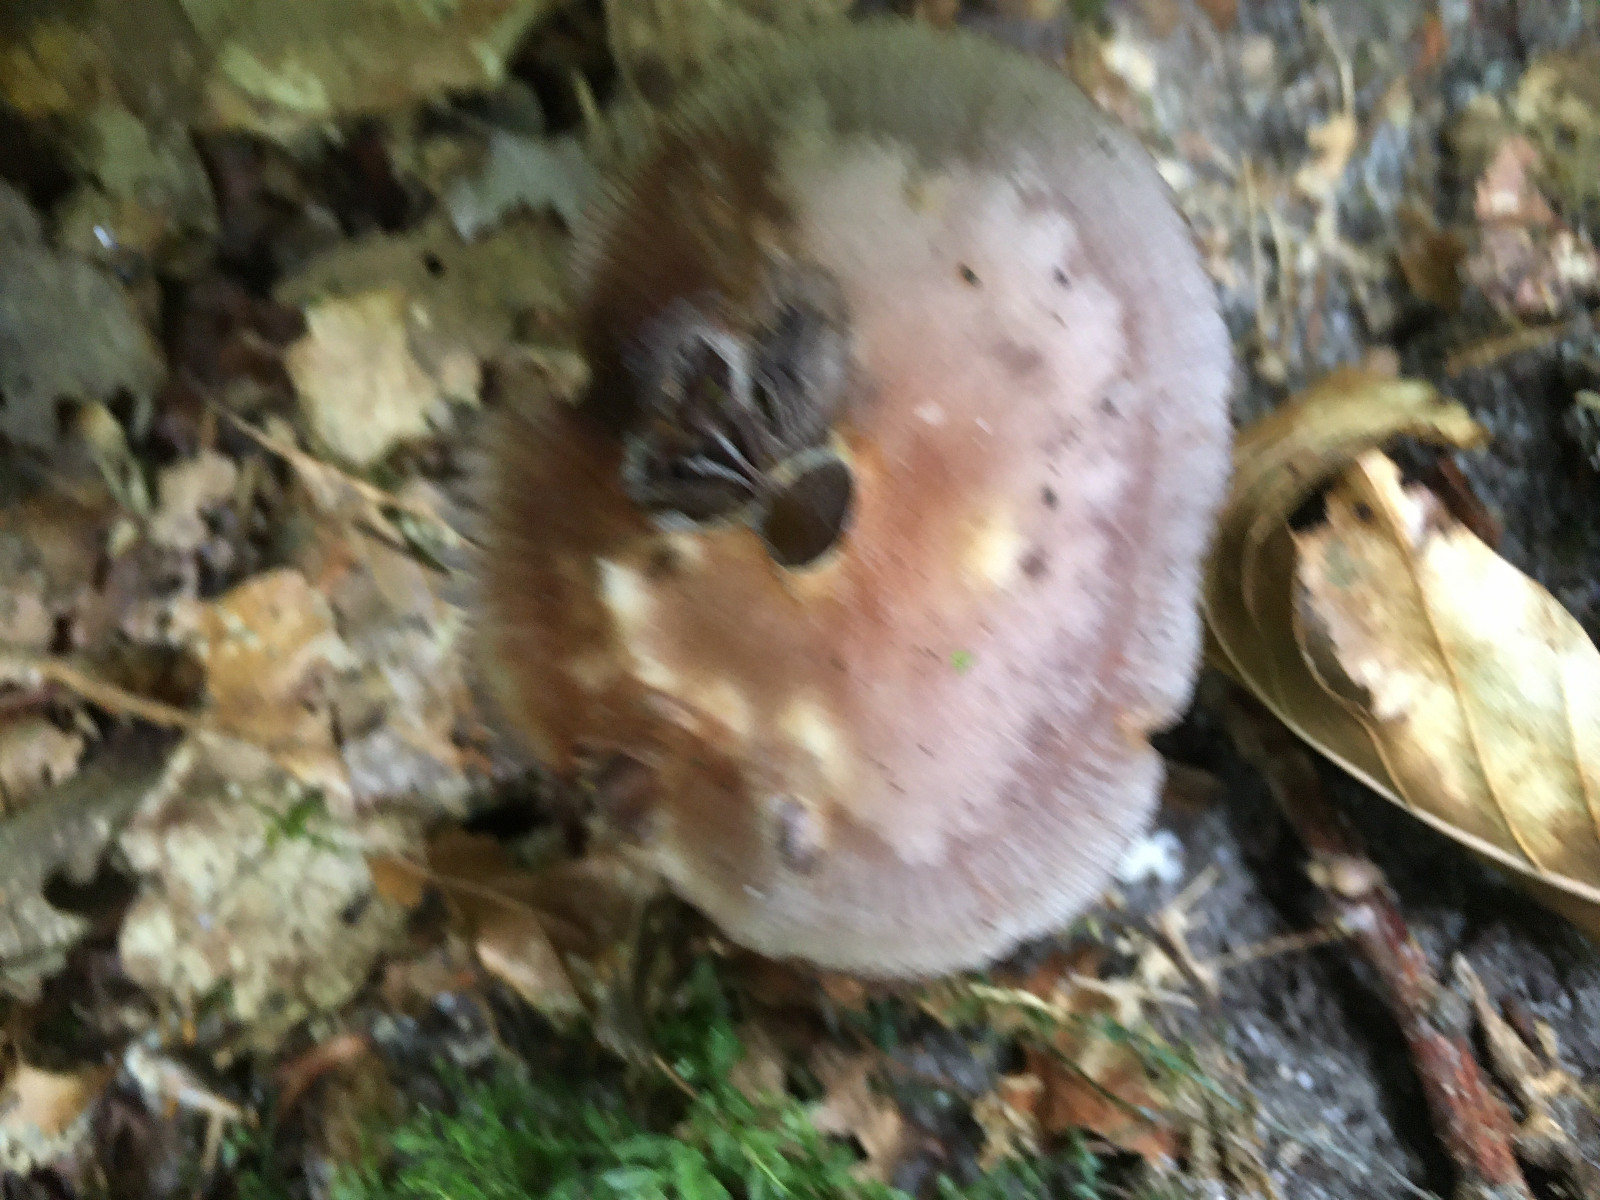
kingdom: Fungi
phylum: Basidiomycota
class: Agaricomycetes
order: Agaricales
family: Mycenaceae
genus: Mycena
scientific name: Mycena pelianthina
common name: mørkbladet huesvamp
